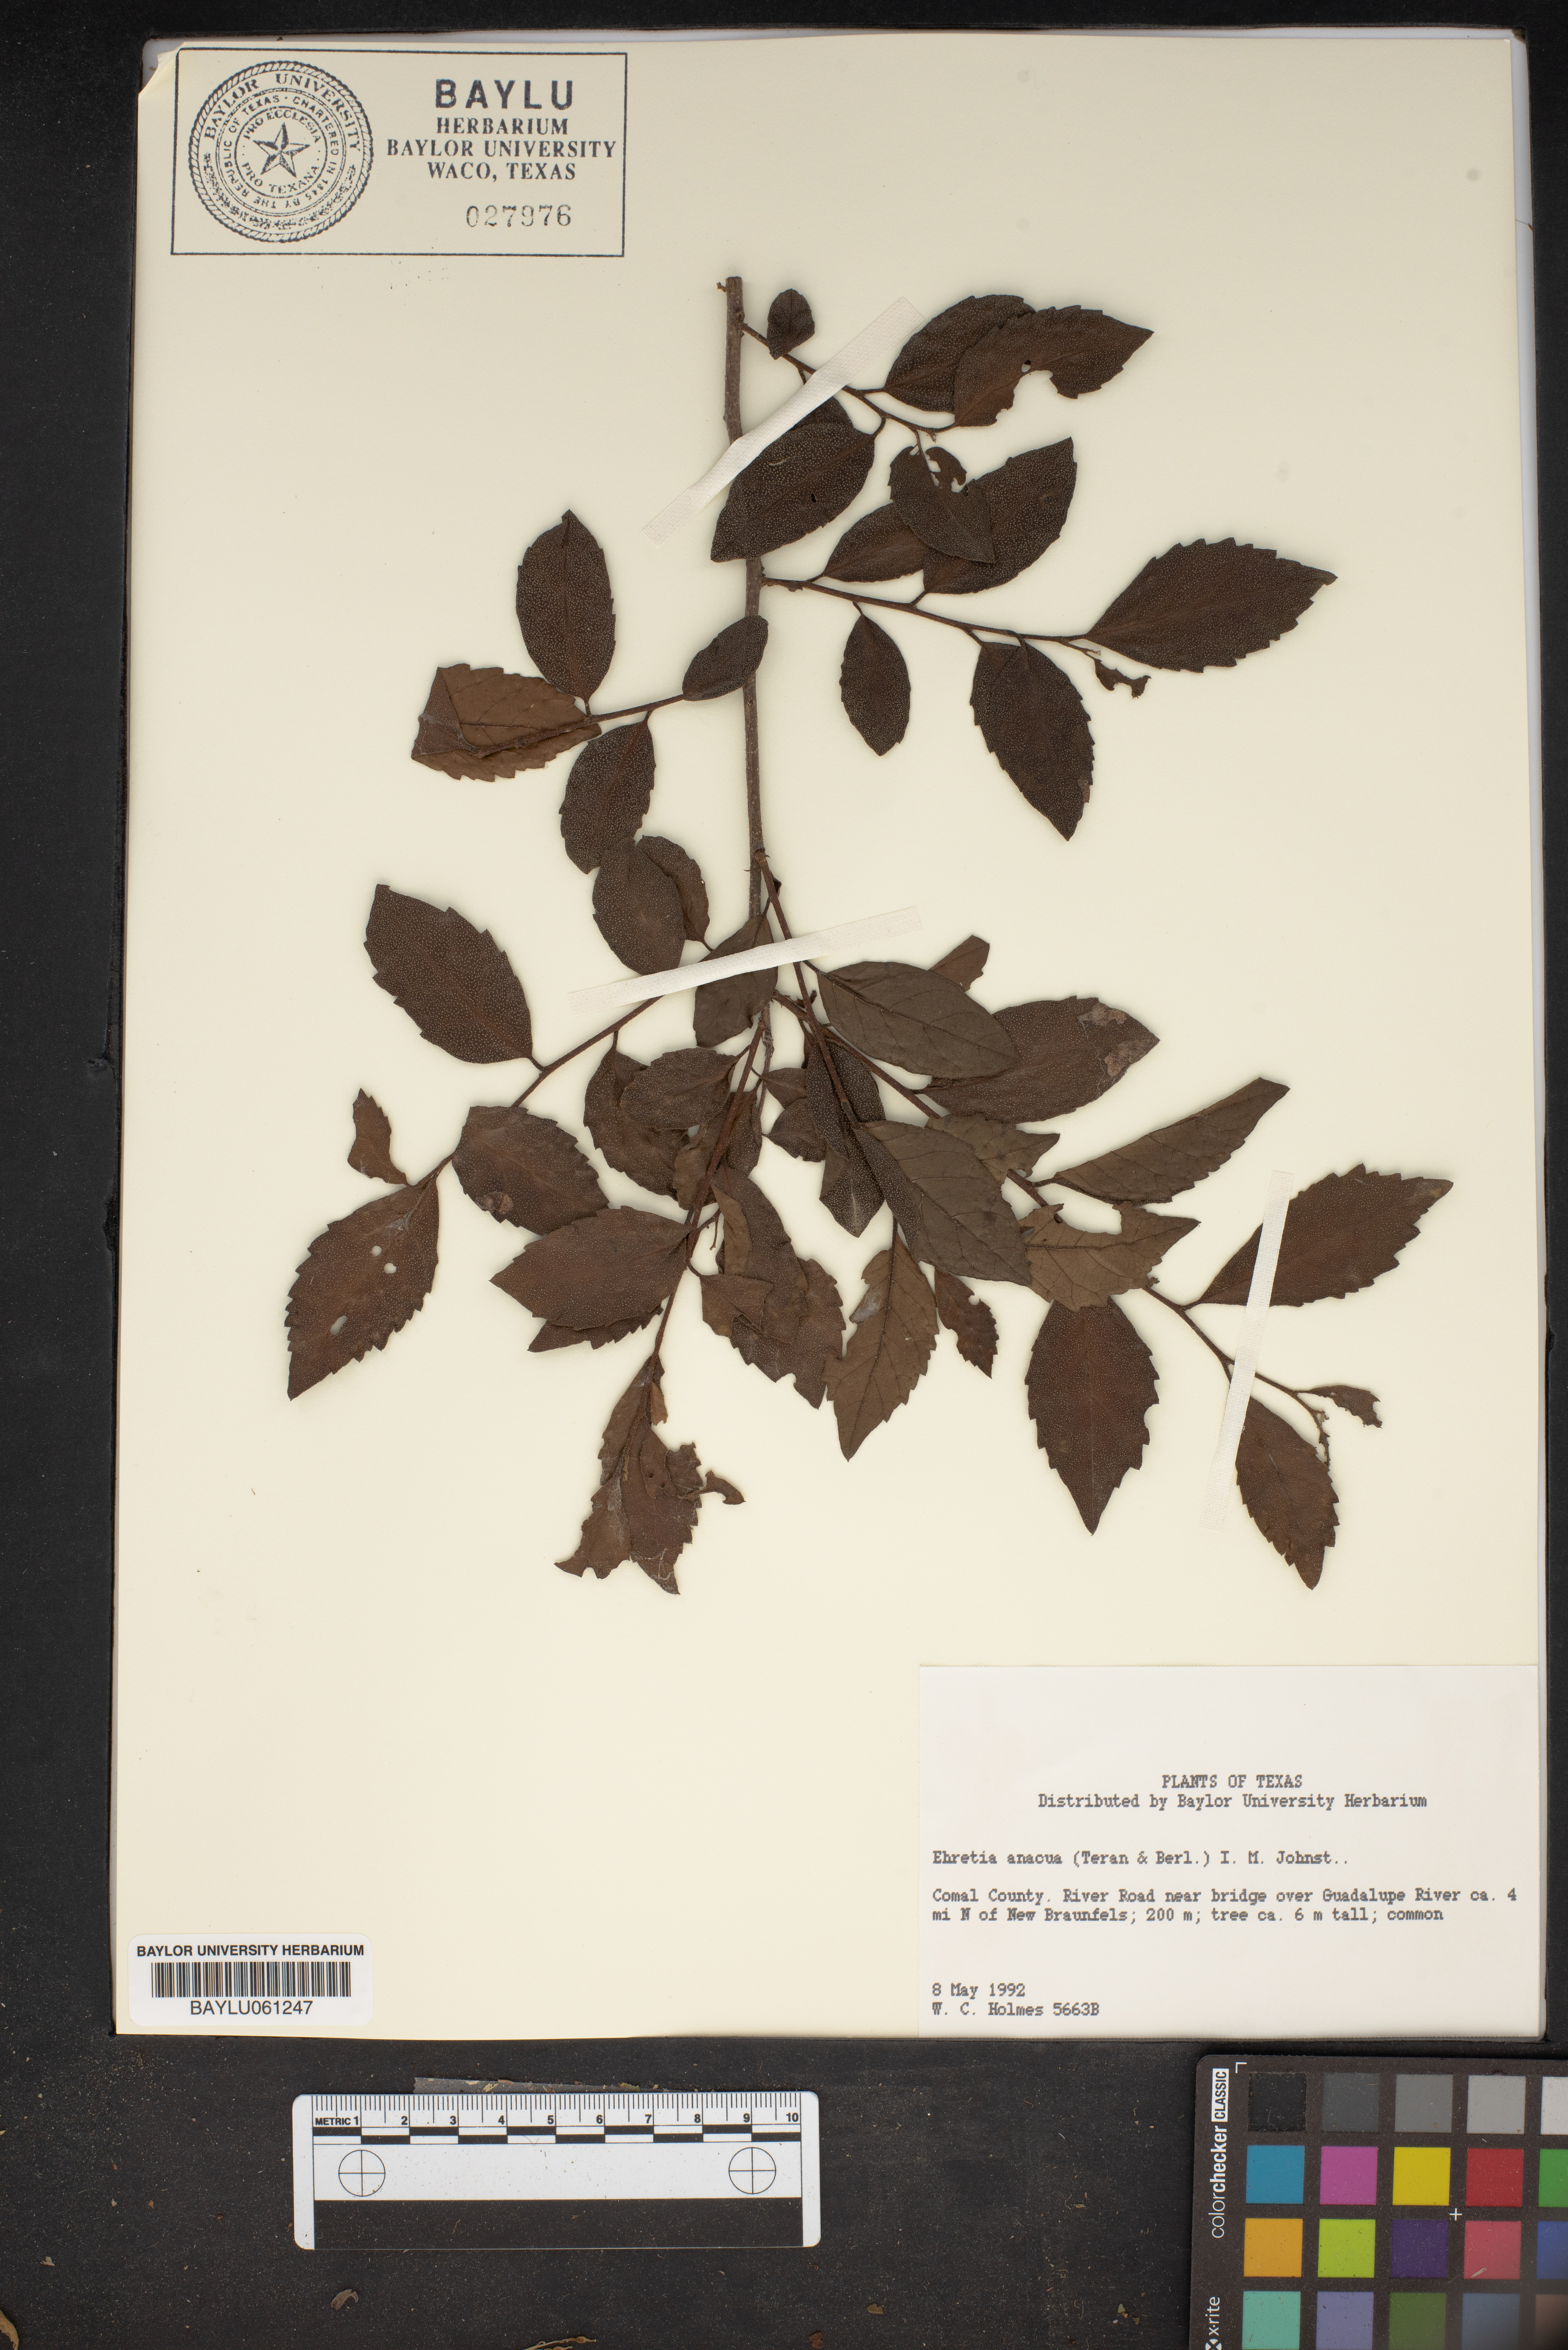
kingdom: Plantae
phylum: Tracheophyta
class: Magnoliopsida
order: Boraginales
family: Ehretiaceae
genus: Ehretia
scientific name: Ehretia anacua
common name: Sugarberry
